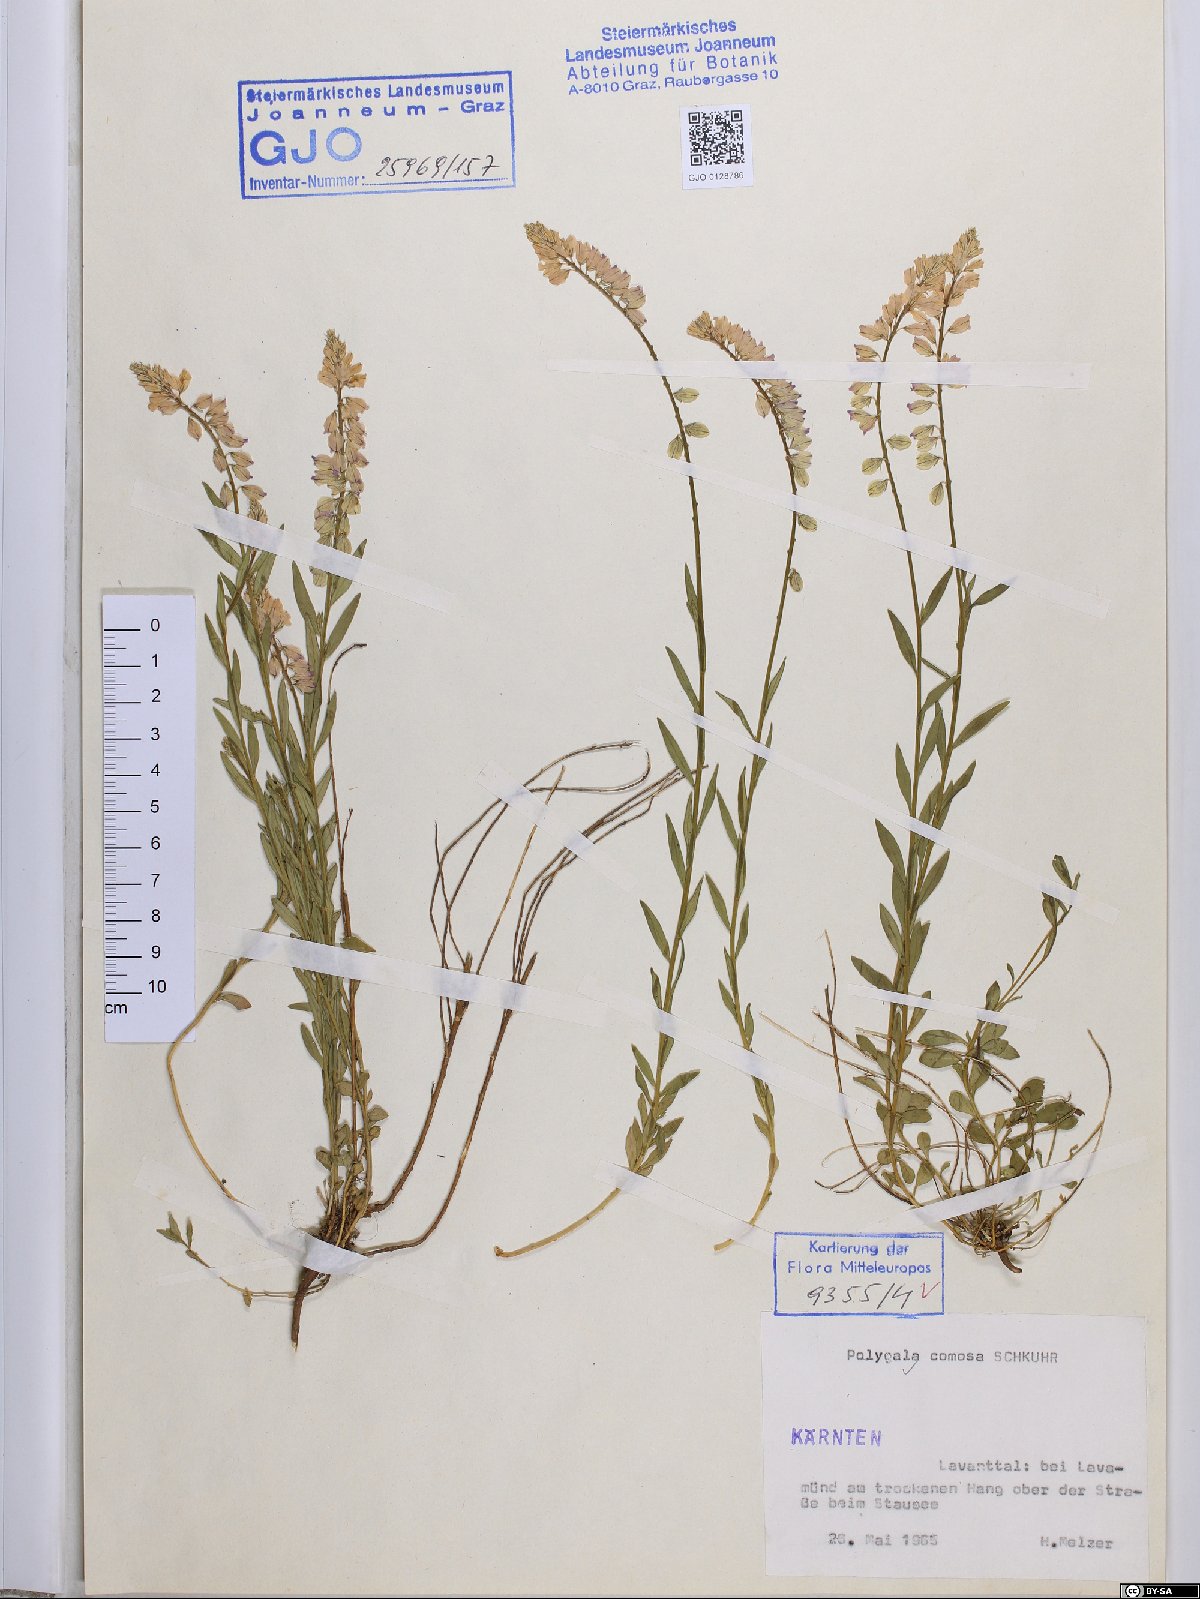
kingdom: Plantae
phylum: Tracheophyta
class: Magnoliopsida
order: Fabales
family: Polygalaceae
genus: Polygala
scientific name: Polygala comosa
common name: Tufted milkwort
